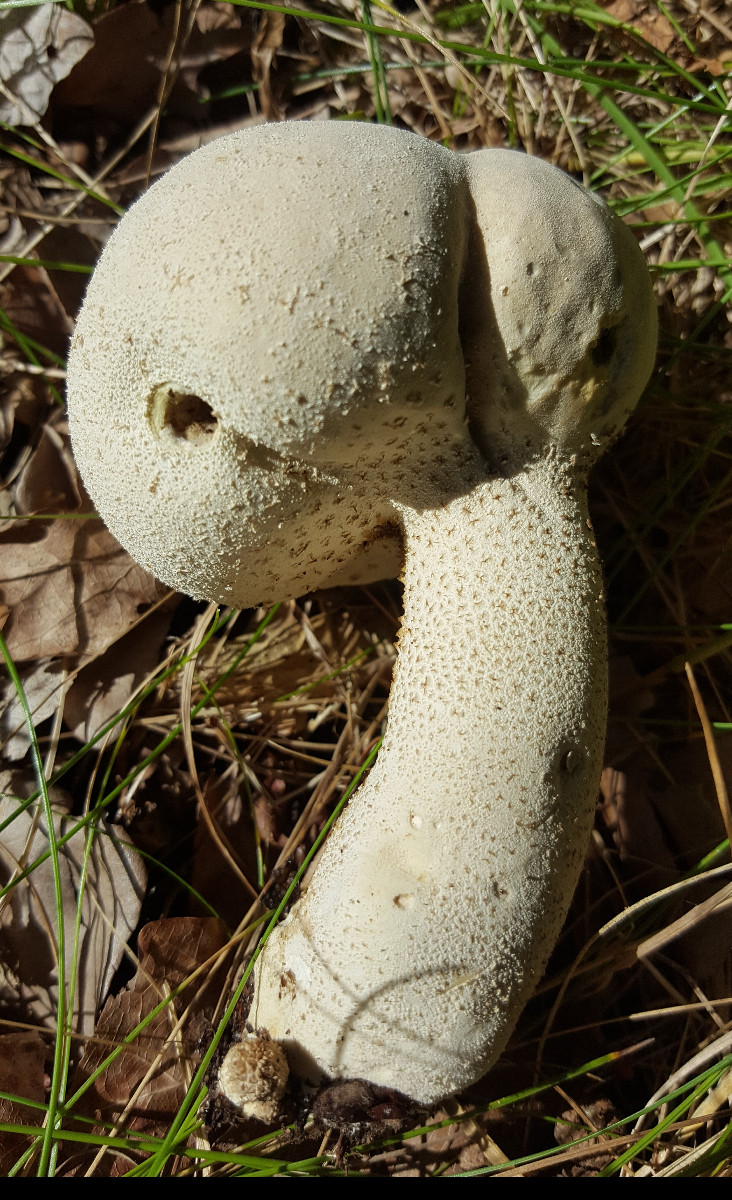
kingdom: Fungi
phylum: Basidiomycota
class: Agaricomycetes
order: Agaricales
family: Lycoperdaceae
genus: Lycoperdon
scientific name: Lycoperdon excipuliforme
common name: højstokket støvbold
